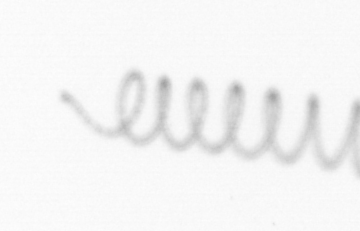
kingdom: Chromista
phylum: Ochrophyta
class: Bacillariophyceae
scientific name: Bacillariophyceae
